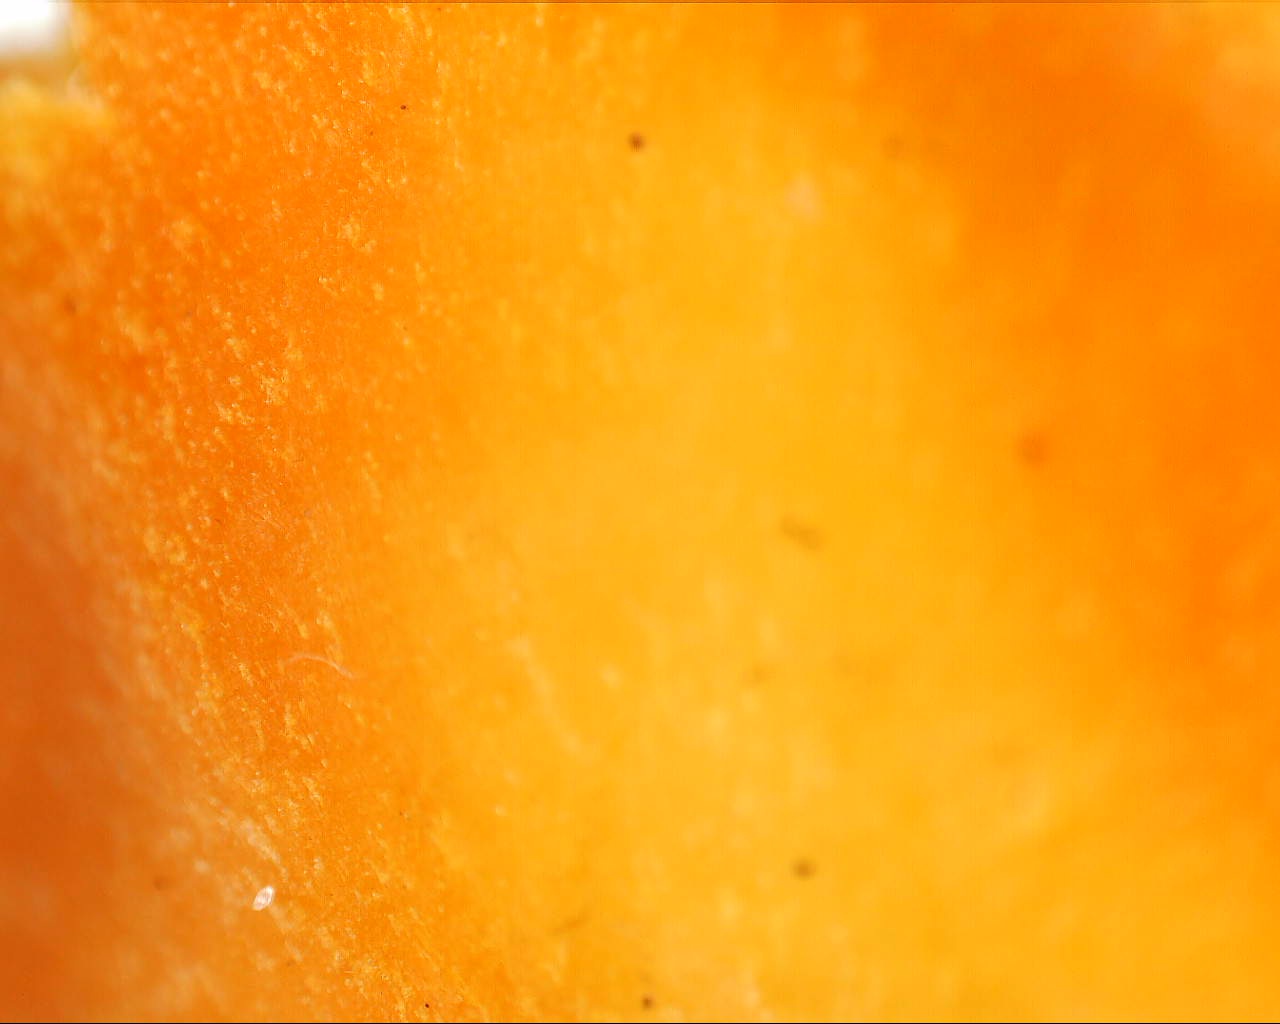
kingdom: Fungi
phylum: Basidiomycota
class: Agaricomycetes
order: Agaricales
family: Hygrophoraceae
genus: Hygrocybe
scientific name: Hygrocybe
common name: vokshat
